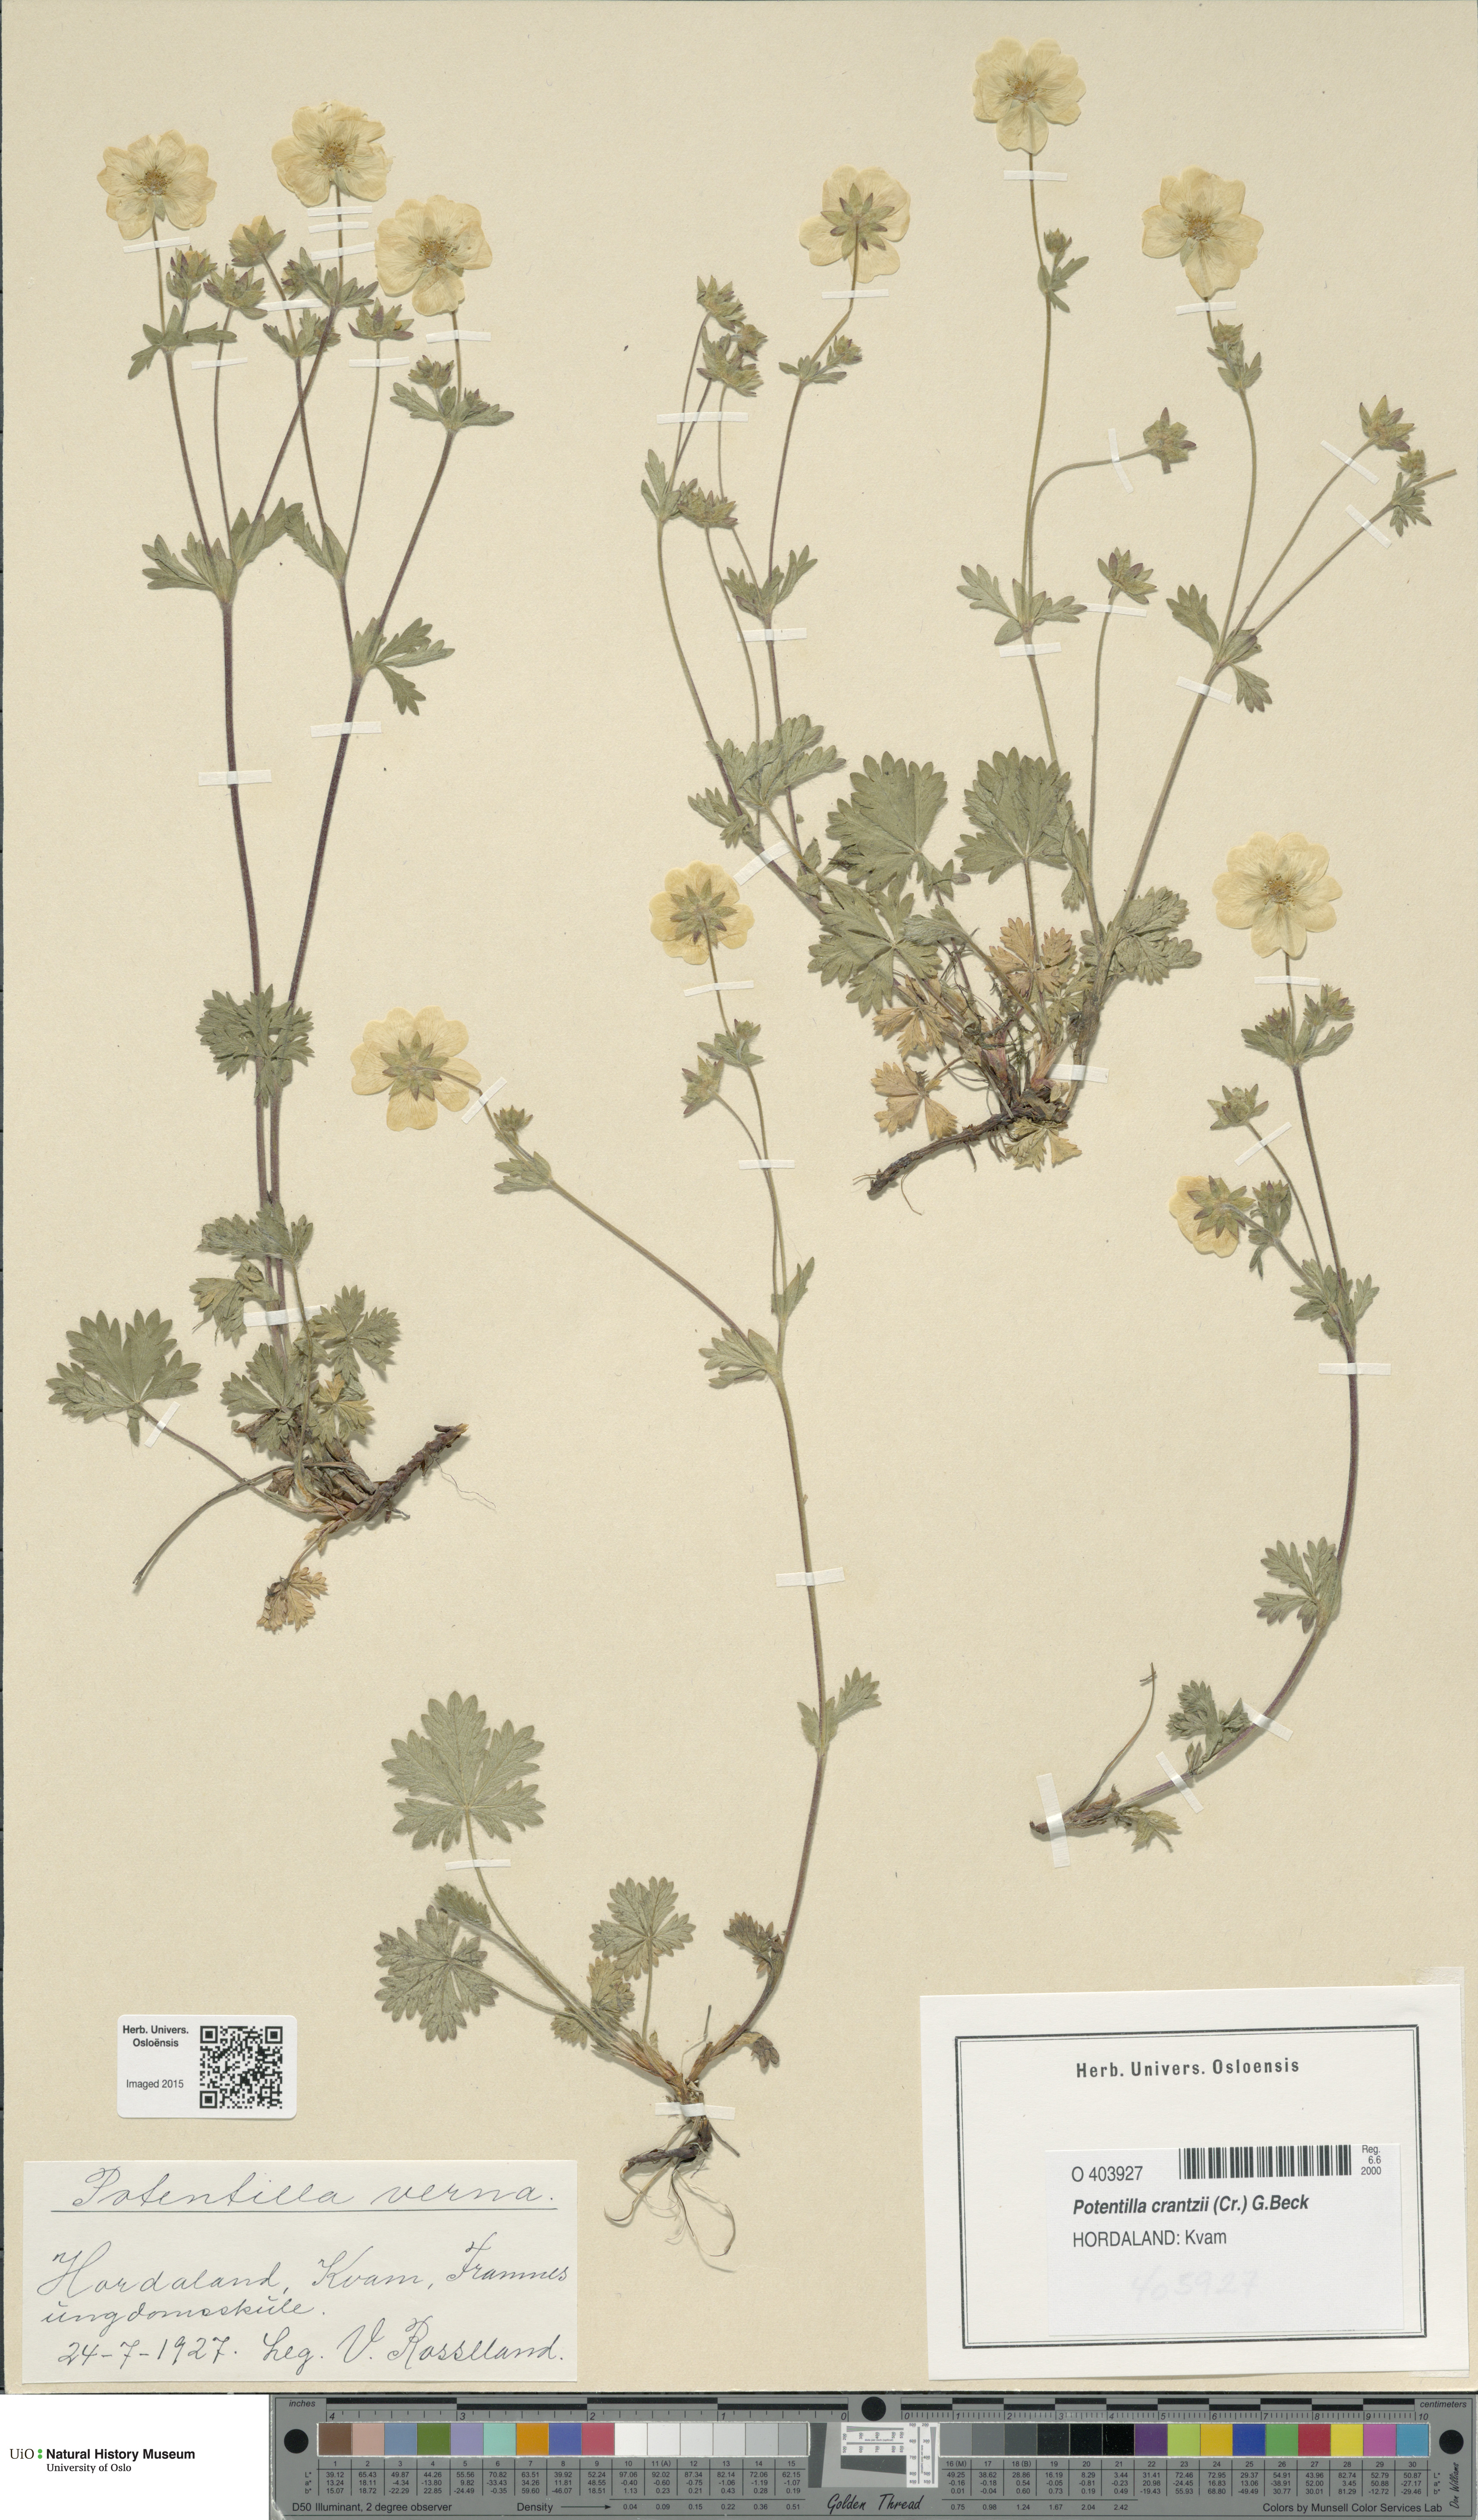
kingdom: Plantae
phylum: Tracheophyta
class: Magnoliopsida
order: Rosales
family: Rosaceae
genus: Potentilla
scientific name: Potentilla verna
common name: Spring cinquefoil
